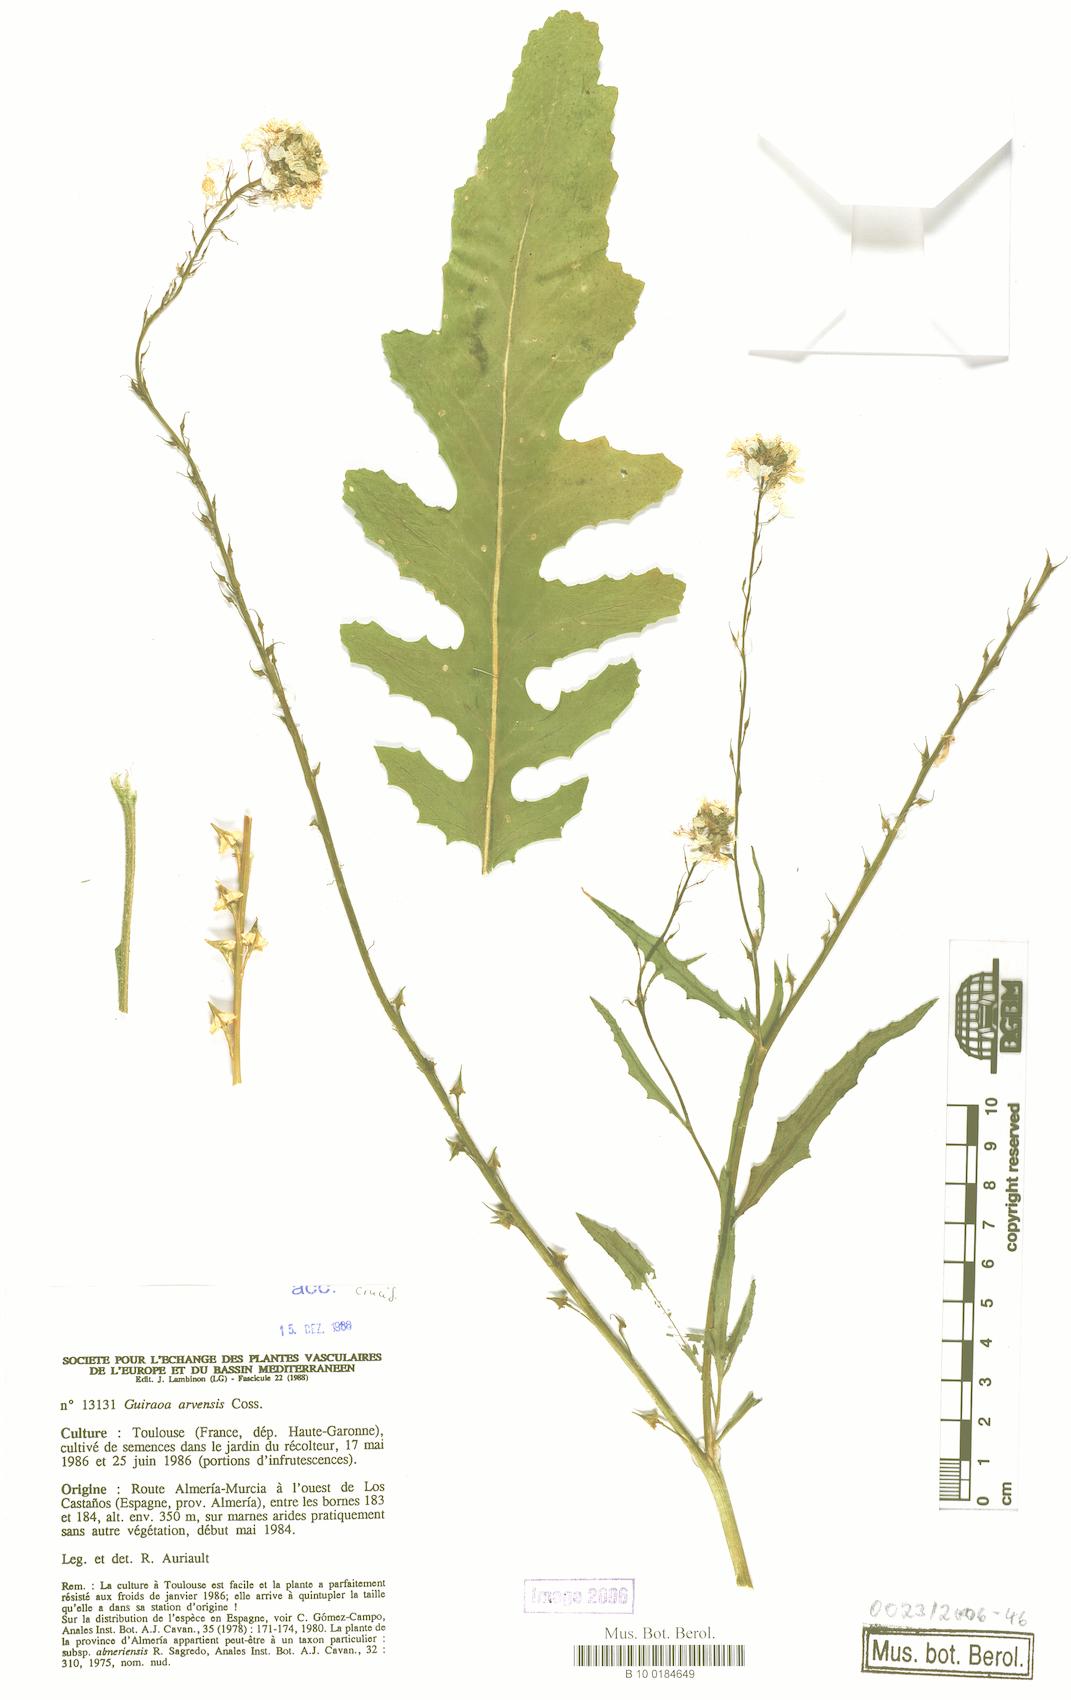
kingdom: Plantae
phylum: Tracheophyta
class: Magnoliopsida
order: Brassicales
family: Brassicaceae
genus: Guiraoa
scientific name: Guiraoa arvensis
